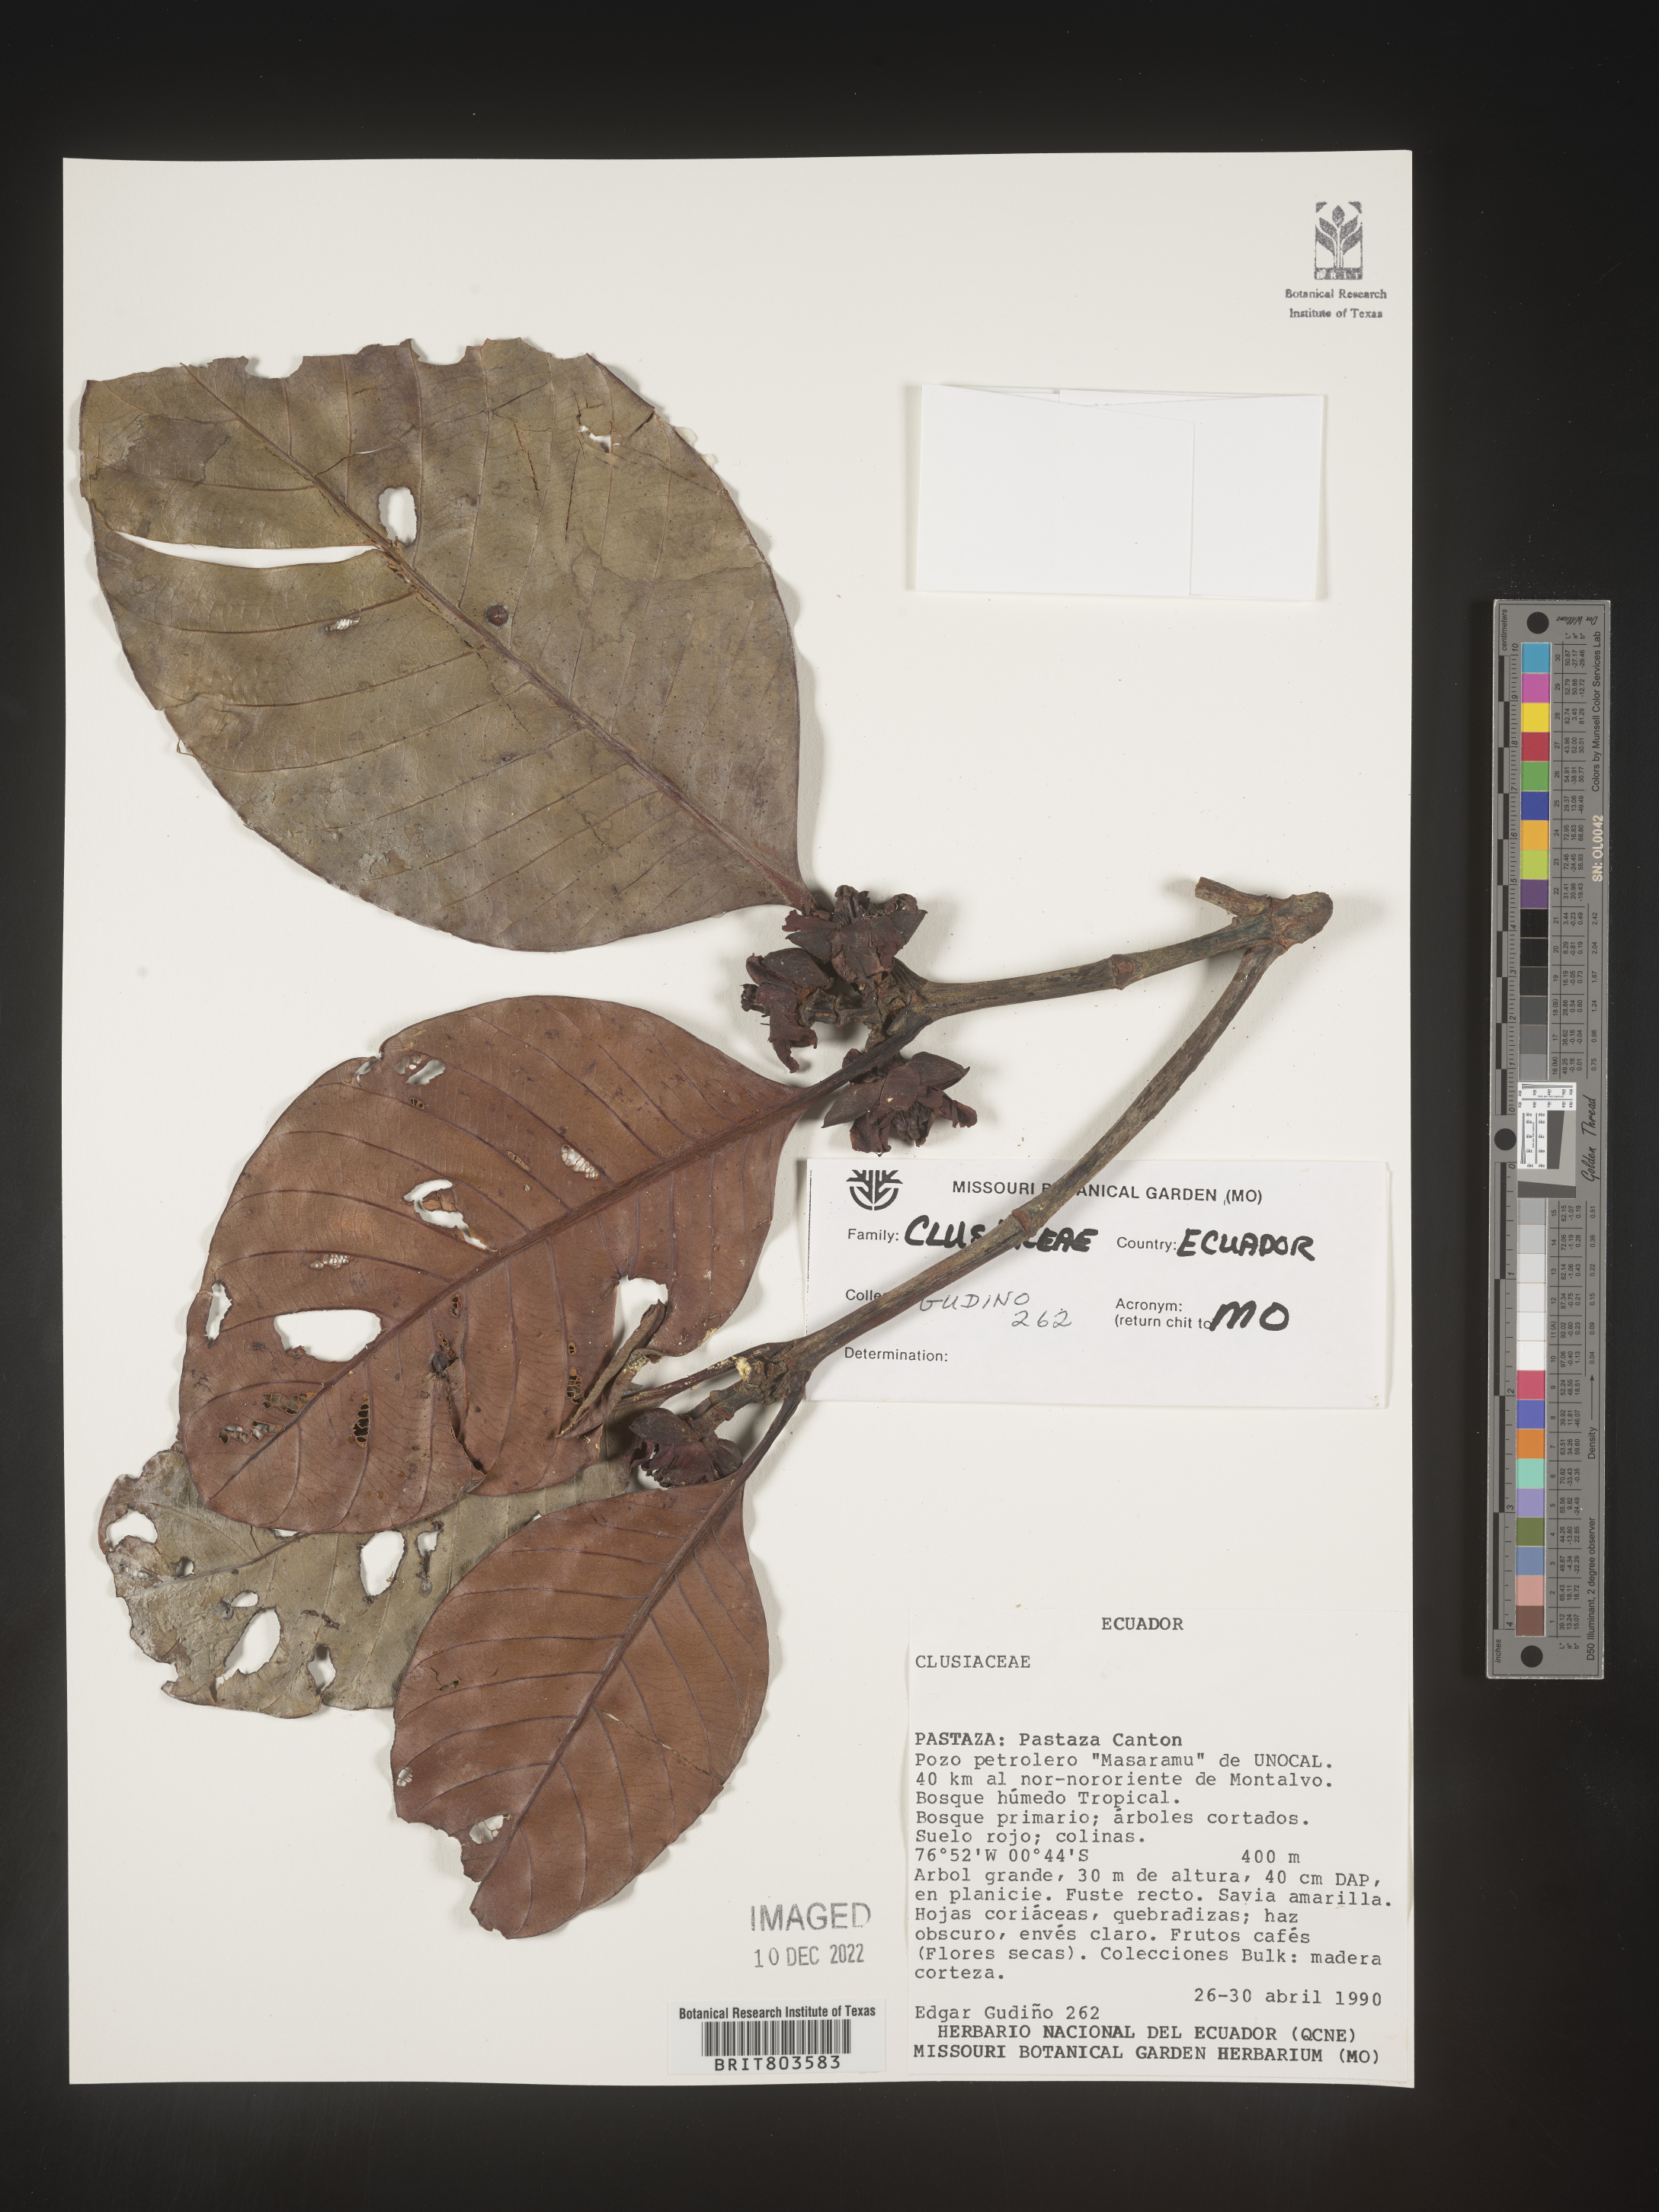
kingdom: Plantae
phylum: Tracheophyta
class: Magnoliopsida
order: Malpighiales
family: Clusiaceae
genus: Tovomita
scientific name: Tovomita
